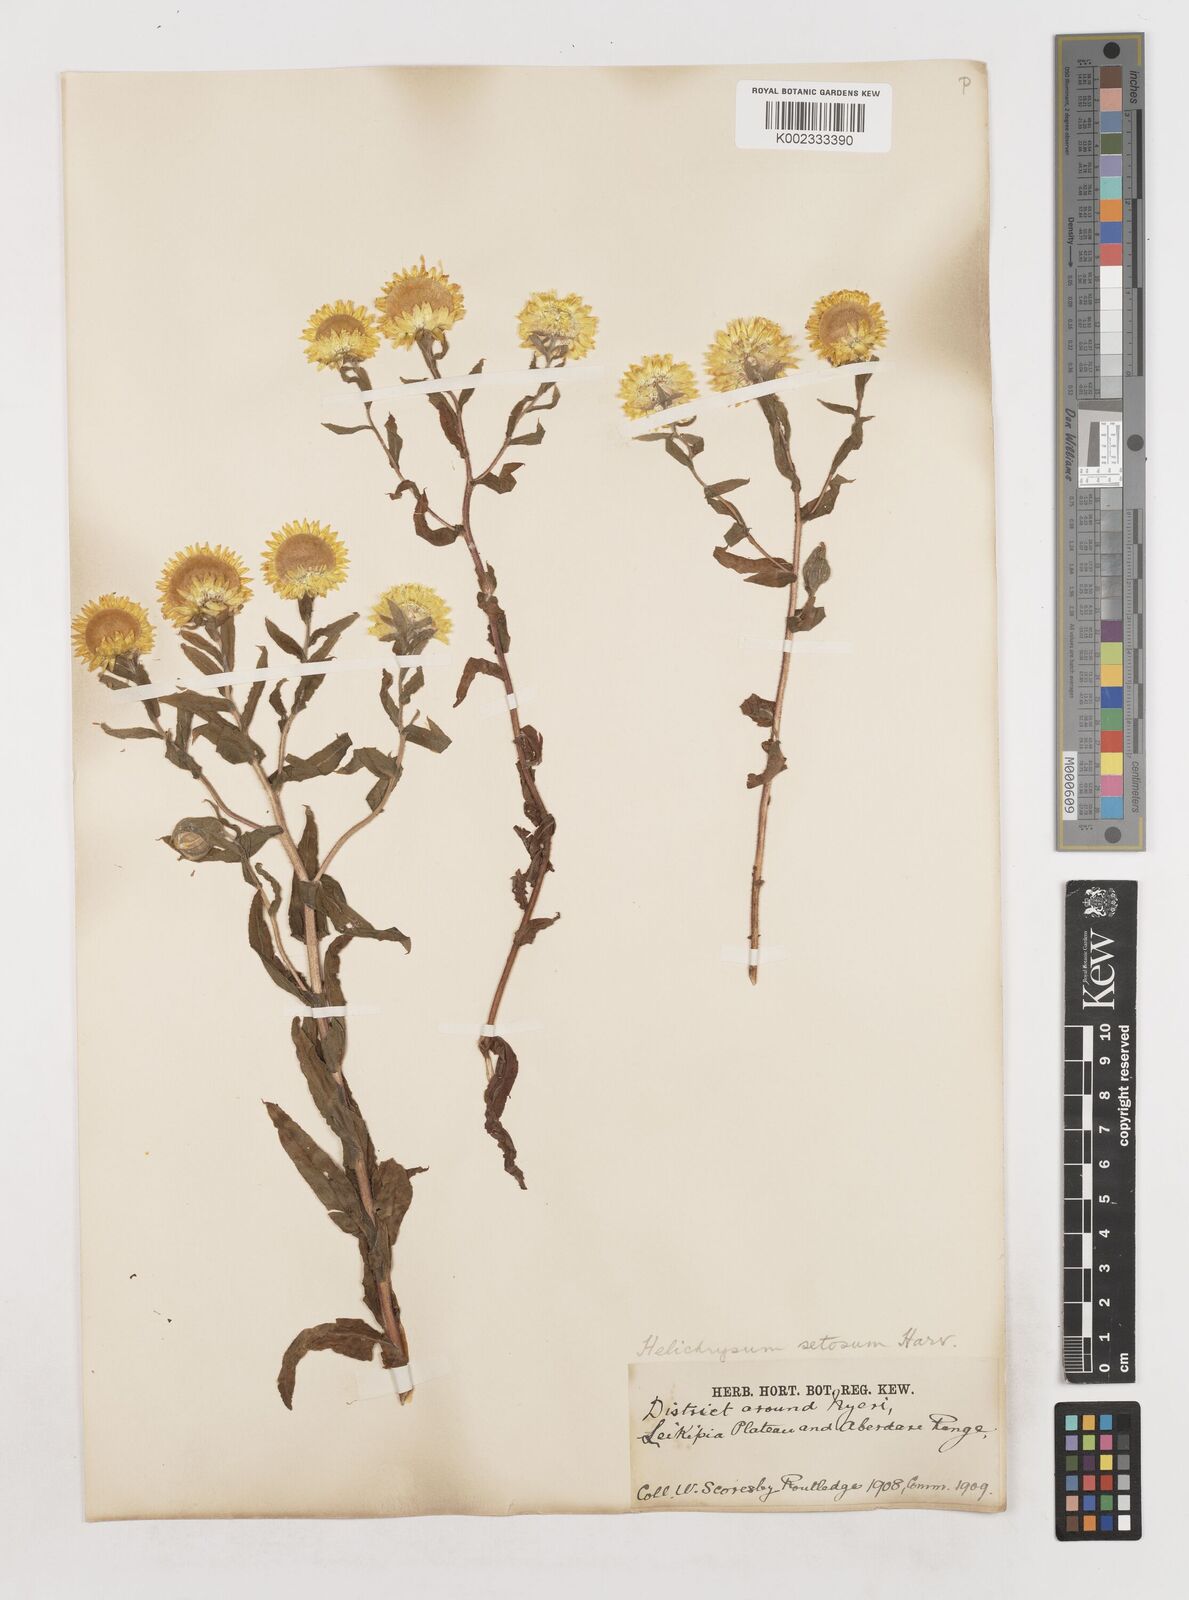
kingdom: Plantae
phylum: Tracheophyta
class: Magnoliopsida
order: Asterales
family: Asteraceae
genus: Helichrysum
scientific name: Helichrysum setosum
